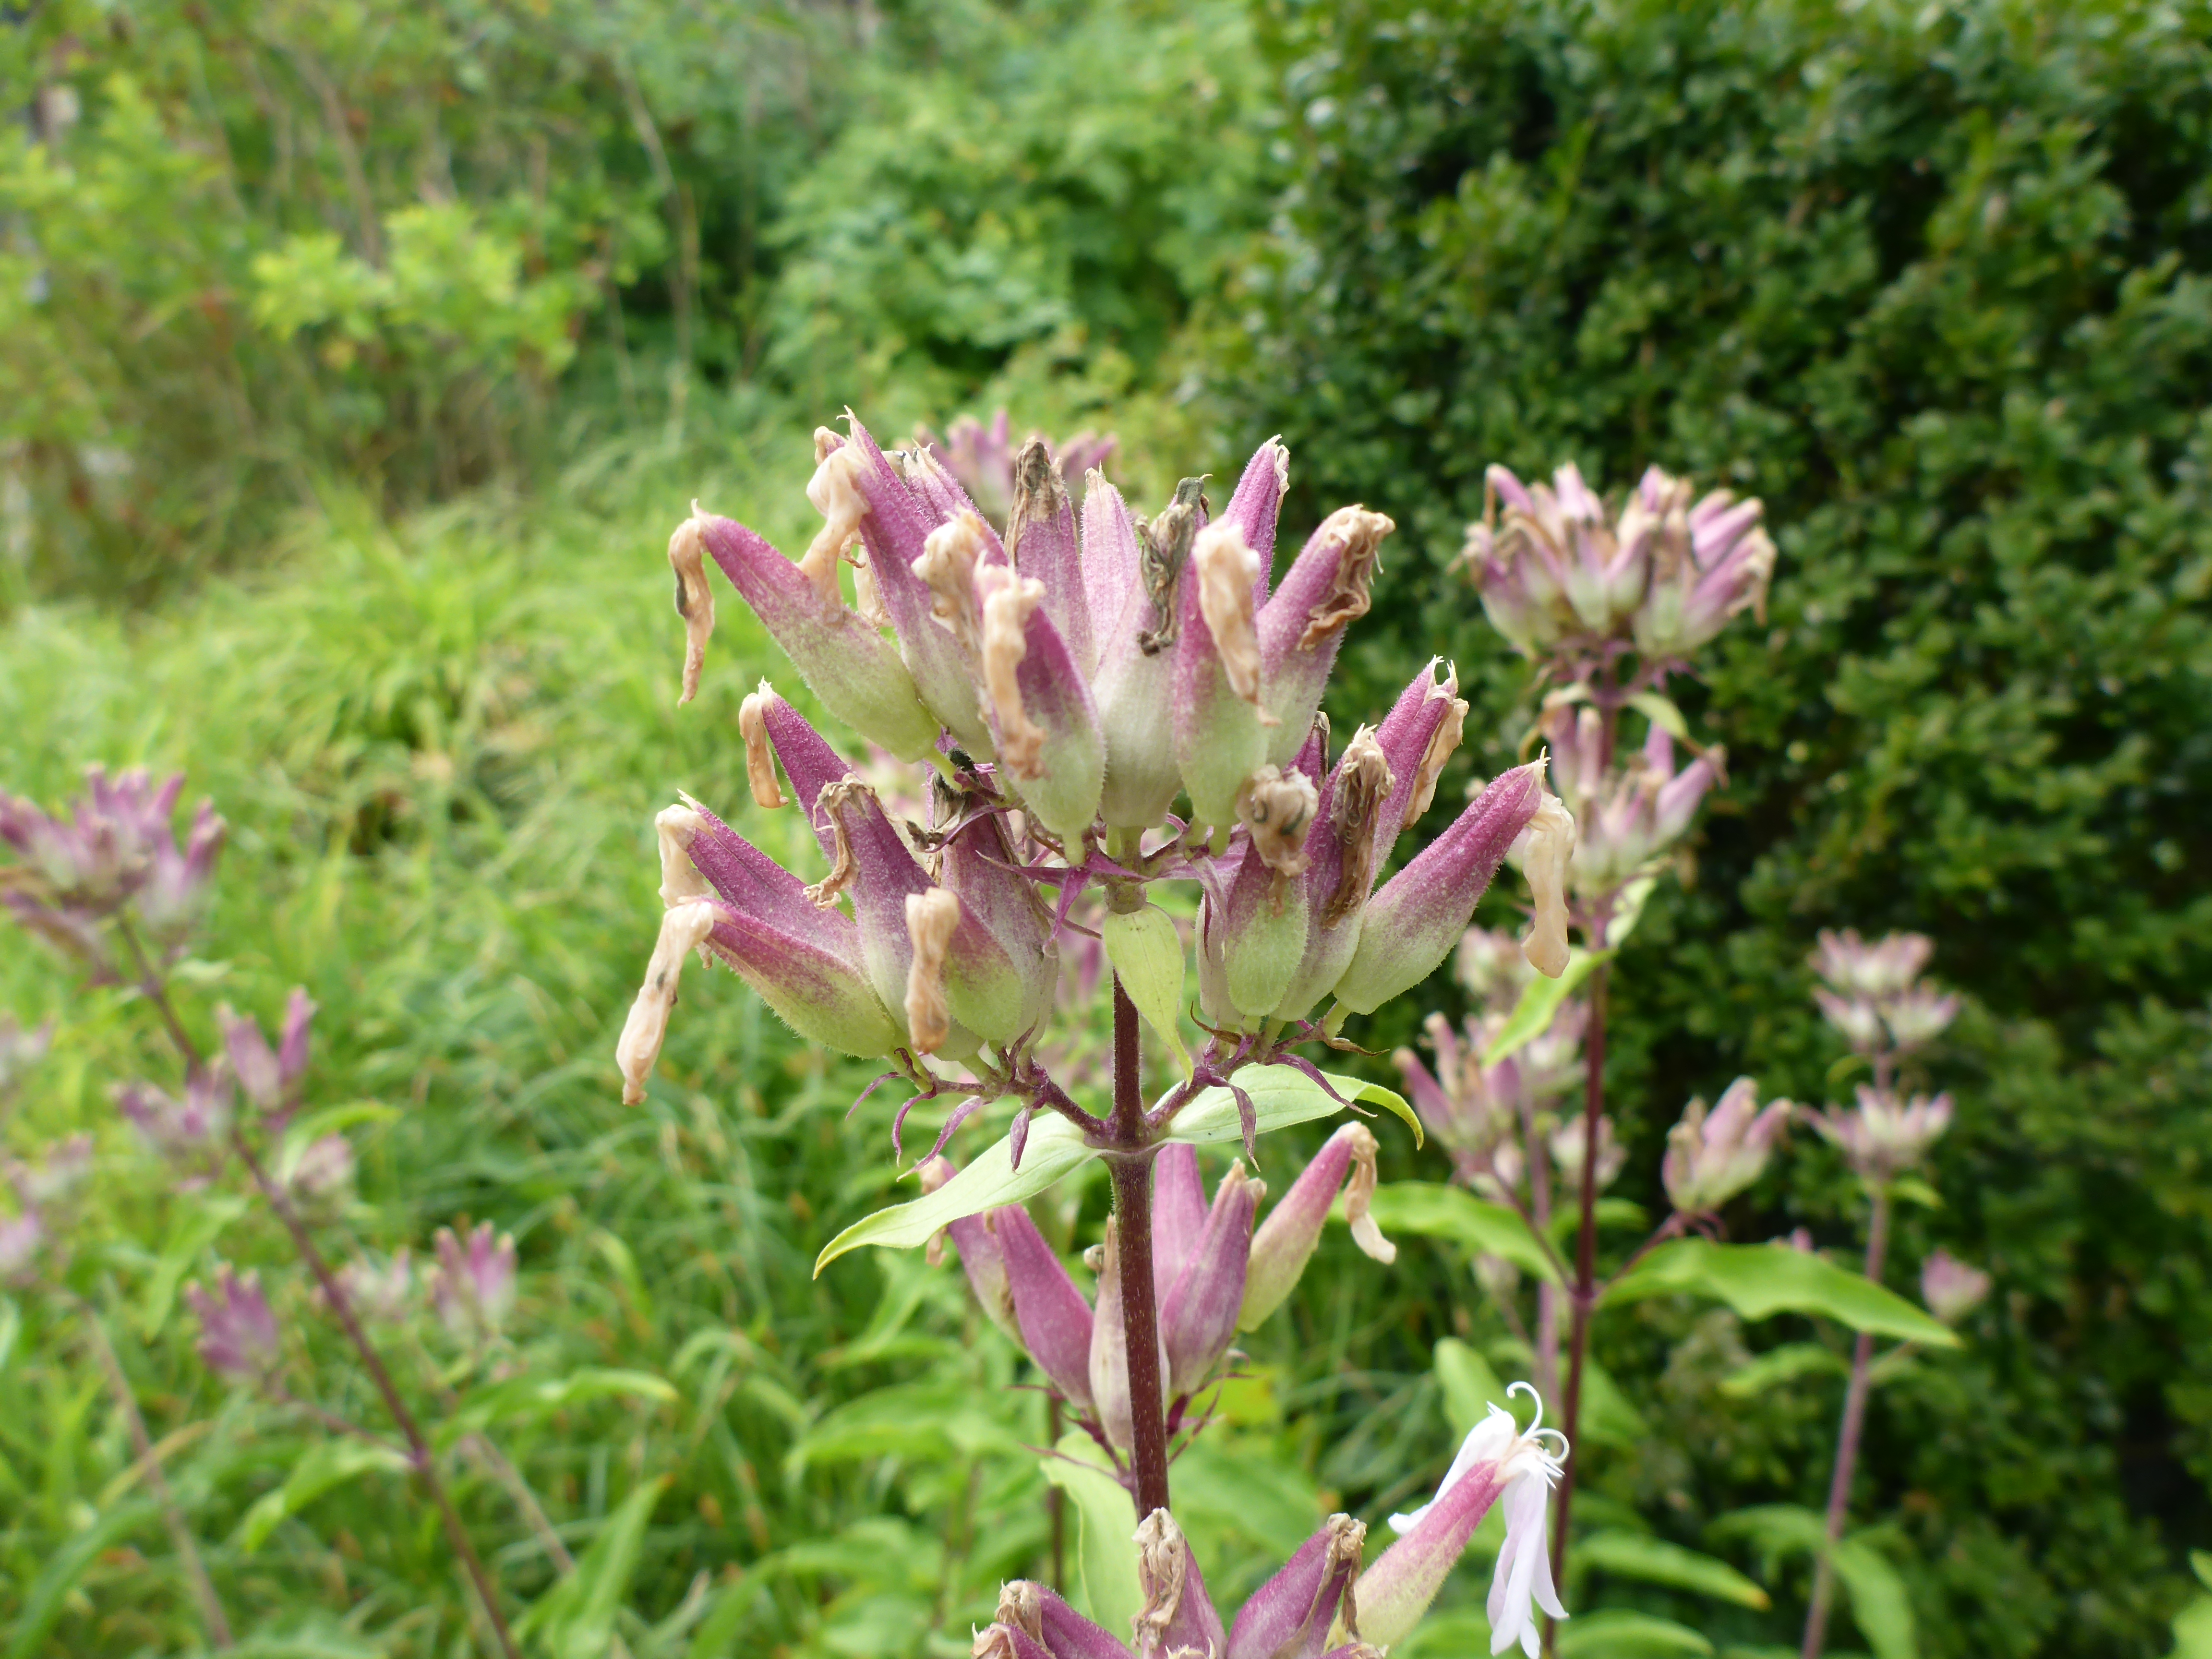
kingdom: Plantae
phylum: Tracheophyta
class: Magnoliopsida
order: Caryophyllales
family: Caryophyllaceae
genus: Saponaria
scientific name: Saponaria officinalis
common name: Soapwort
